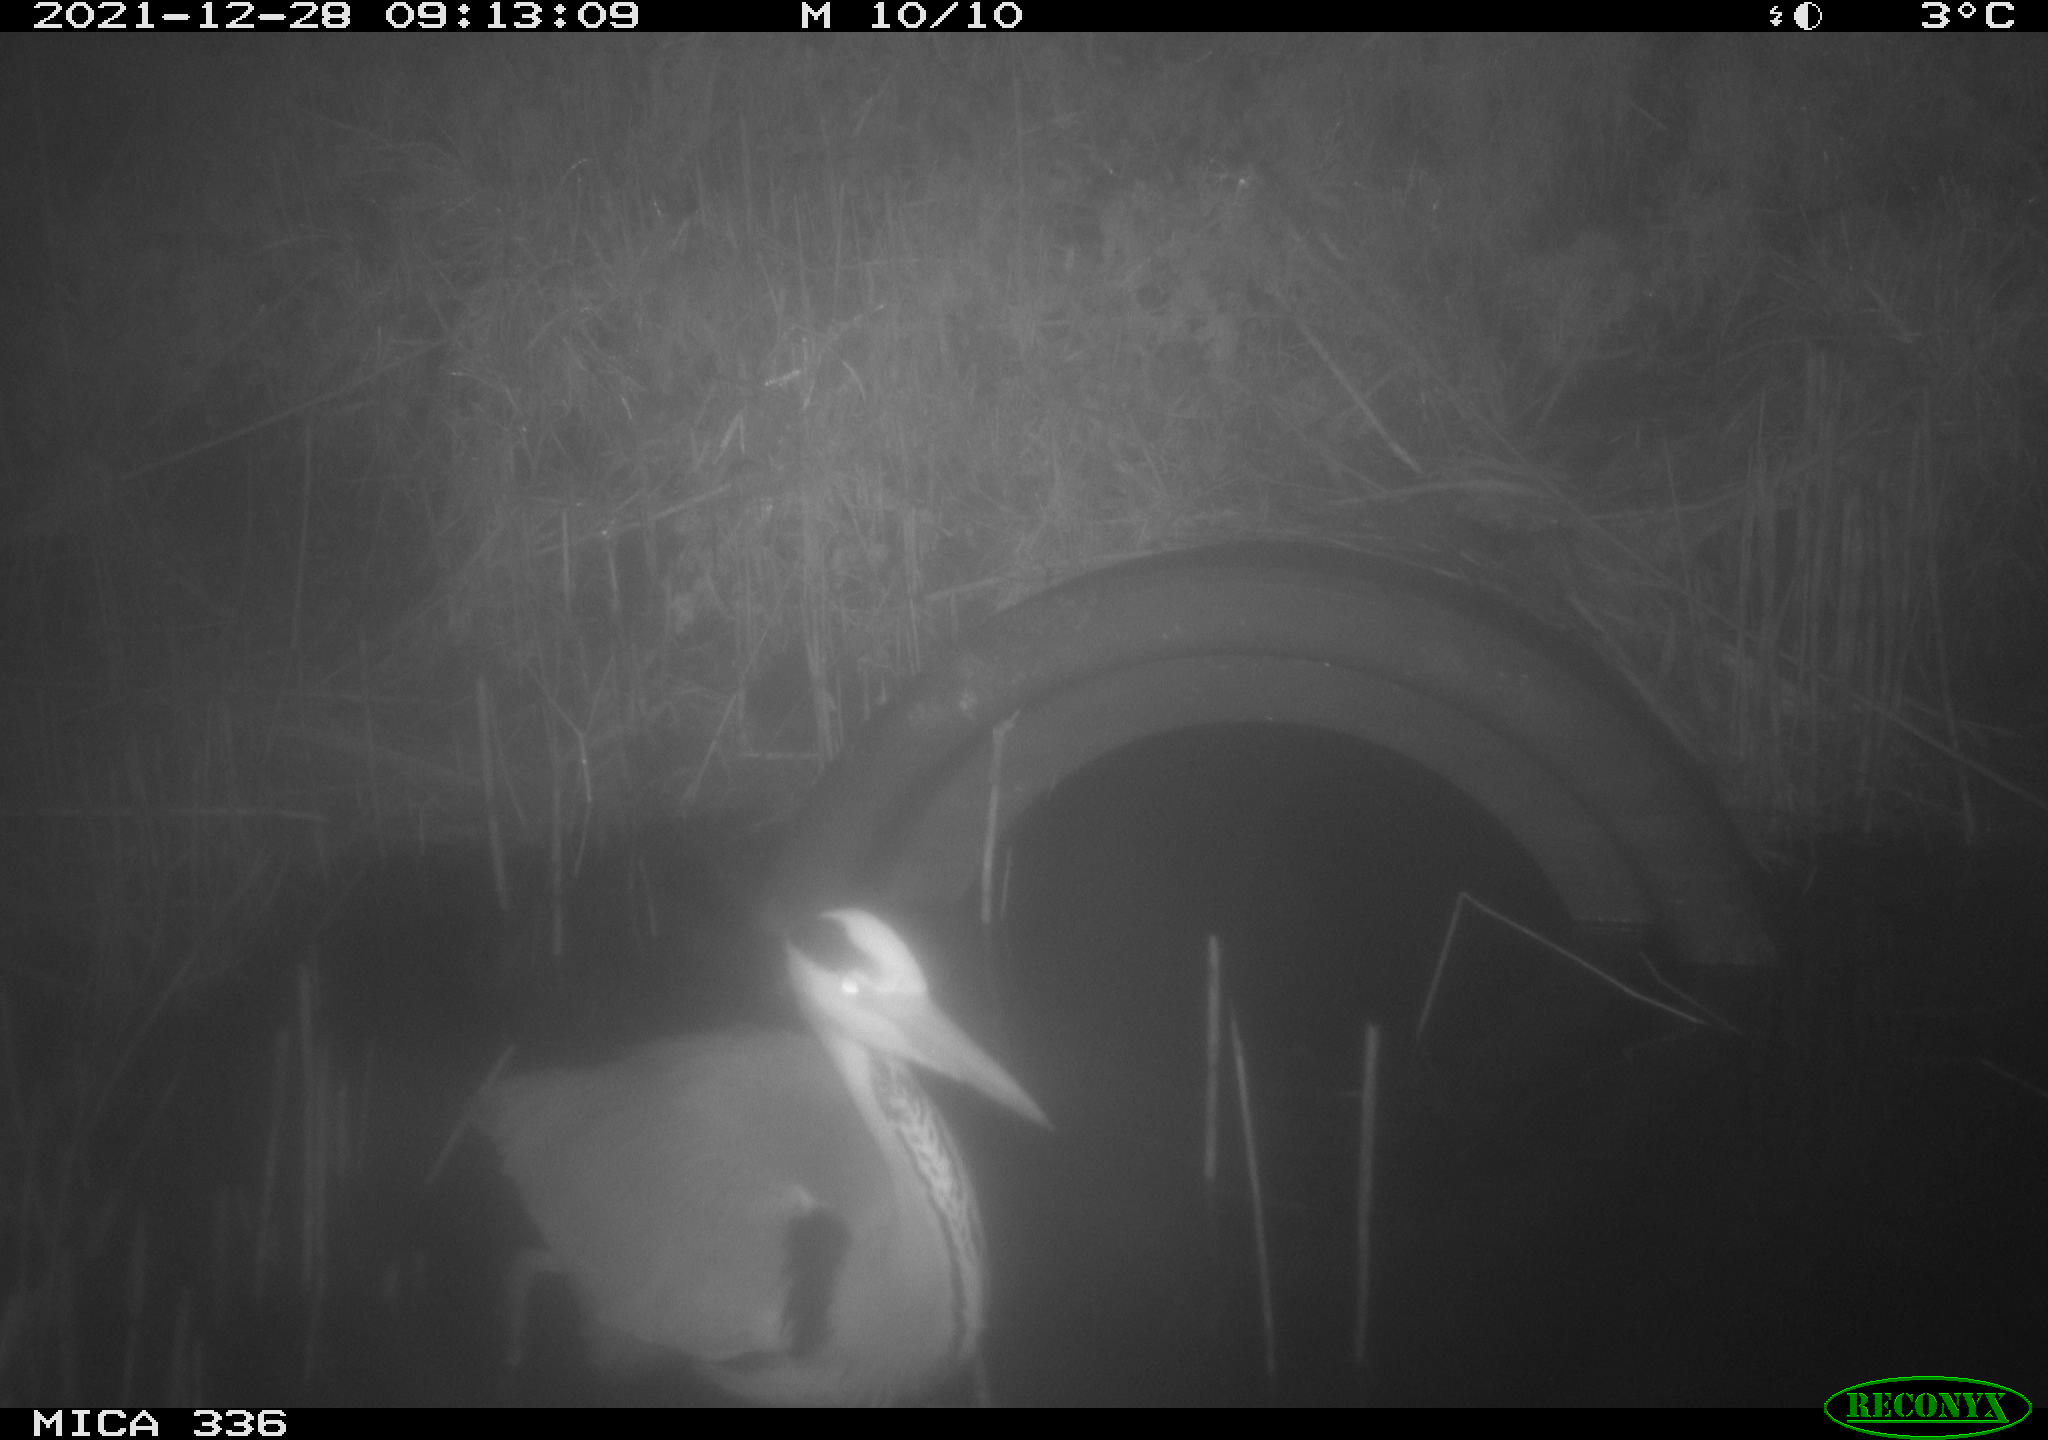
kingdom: Animalia
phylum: Chordata
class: Aves
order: Pelecaniformes
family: Ardeidae
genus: Ardea
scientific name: Ardea cinerea
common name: Grey heron
